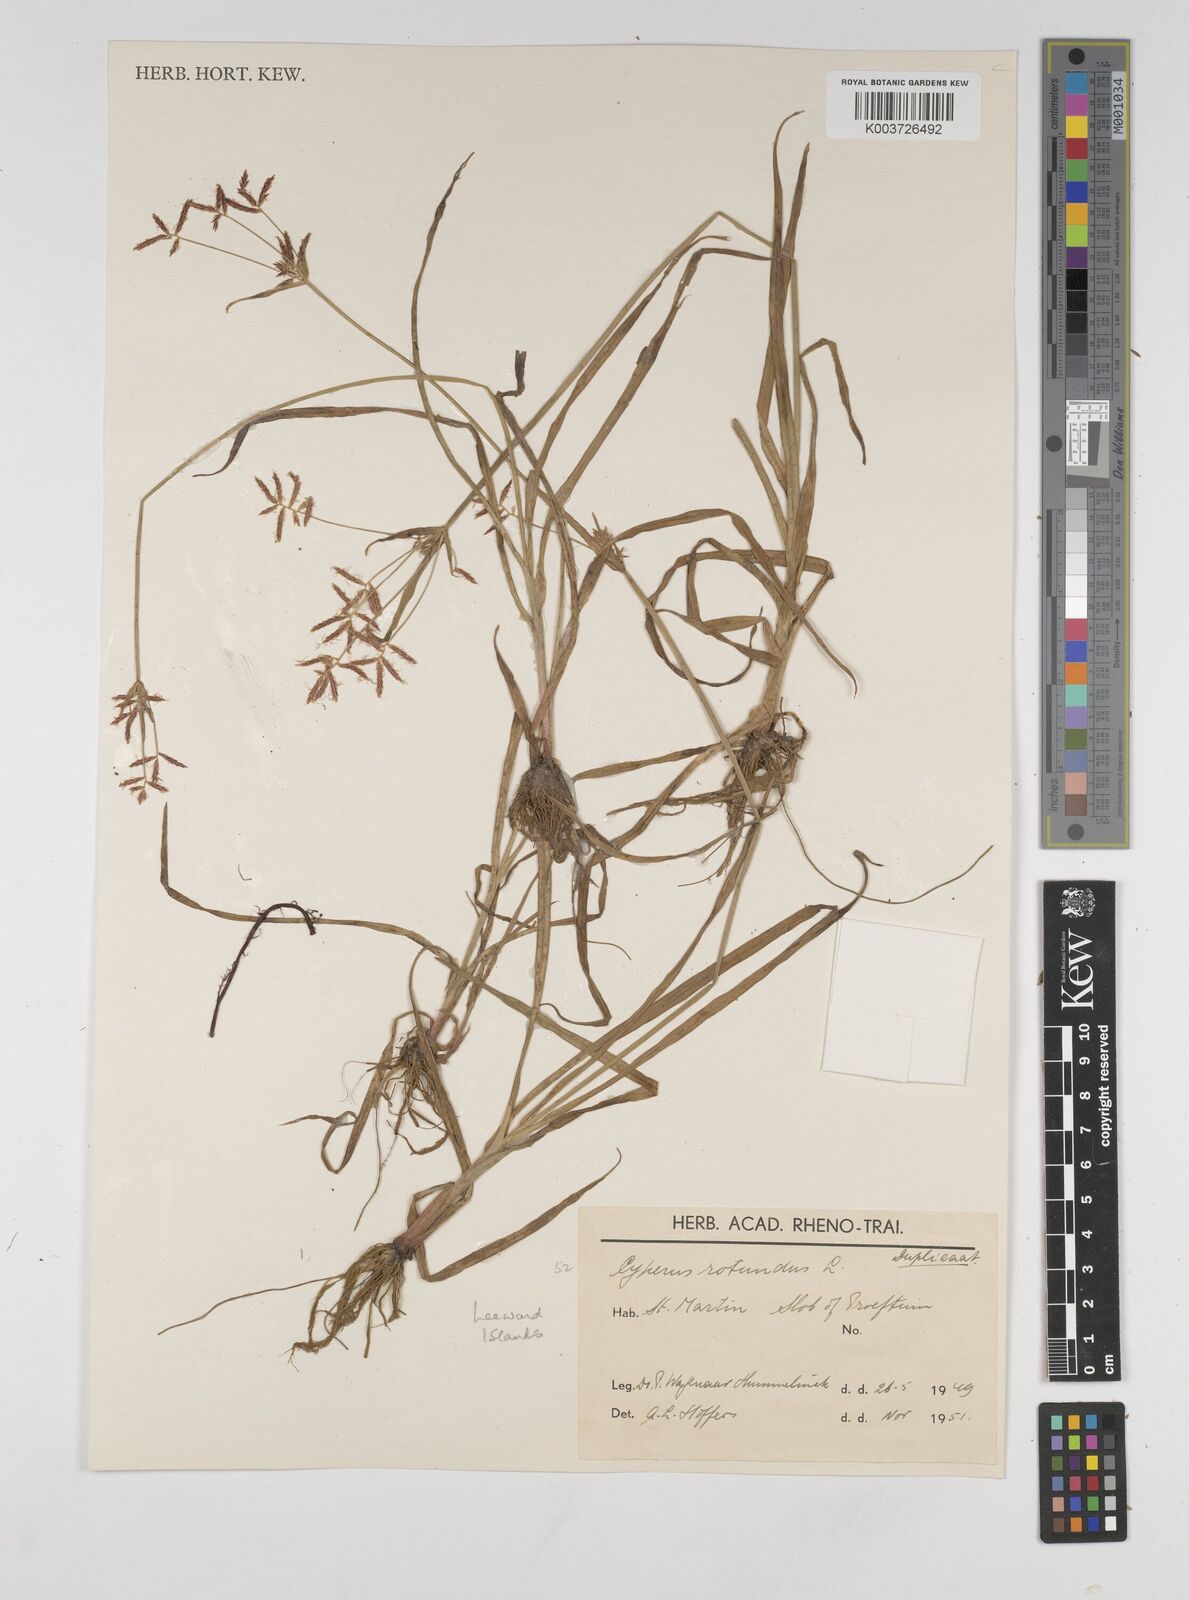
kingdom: Plantae
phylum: Tracheophyta
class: Liliopsida
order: Poales
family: Cyperaceae
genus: Cyperus
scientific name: Cyperus rotundus
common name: Nutgrass
